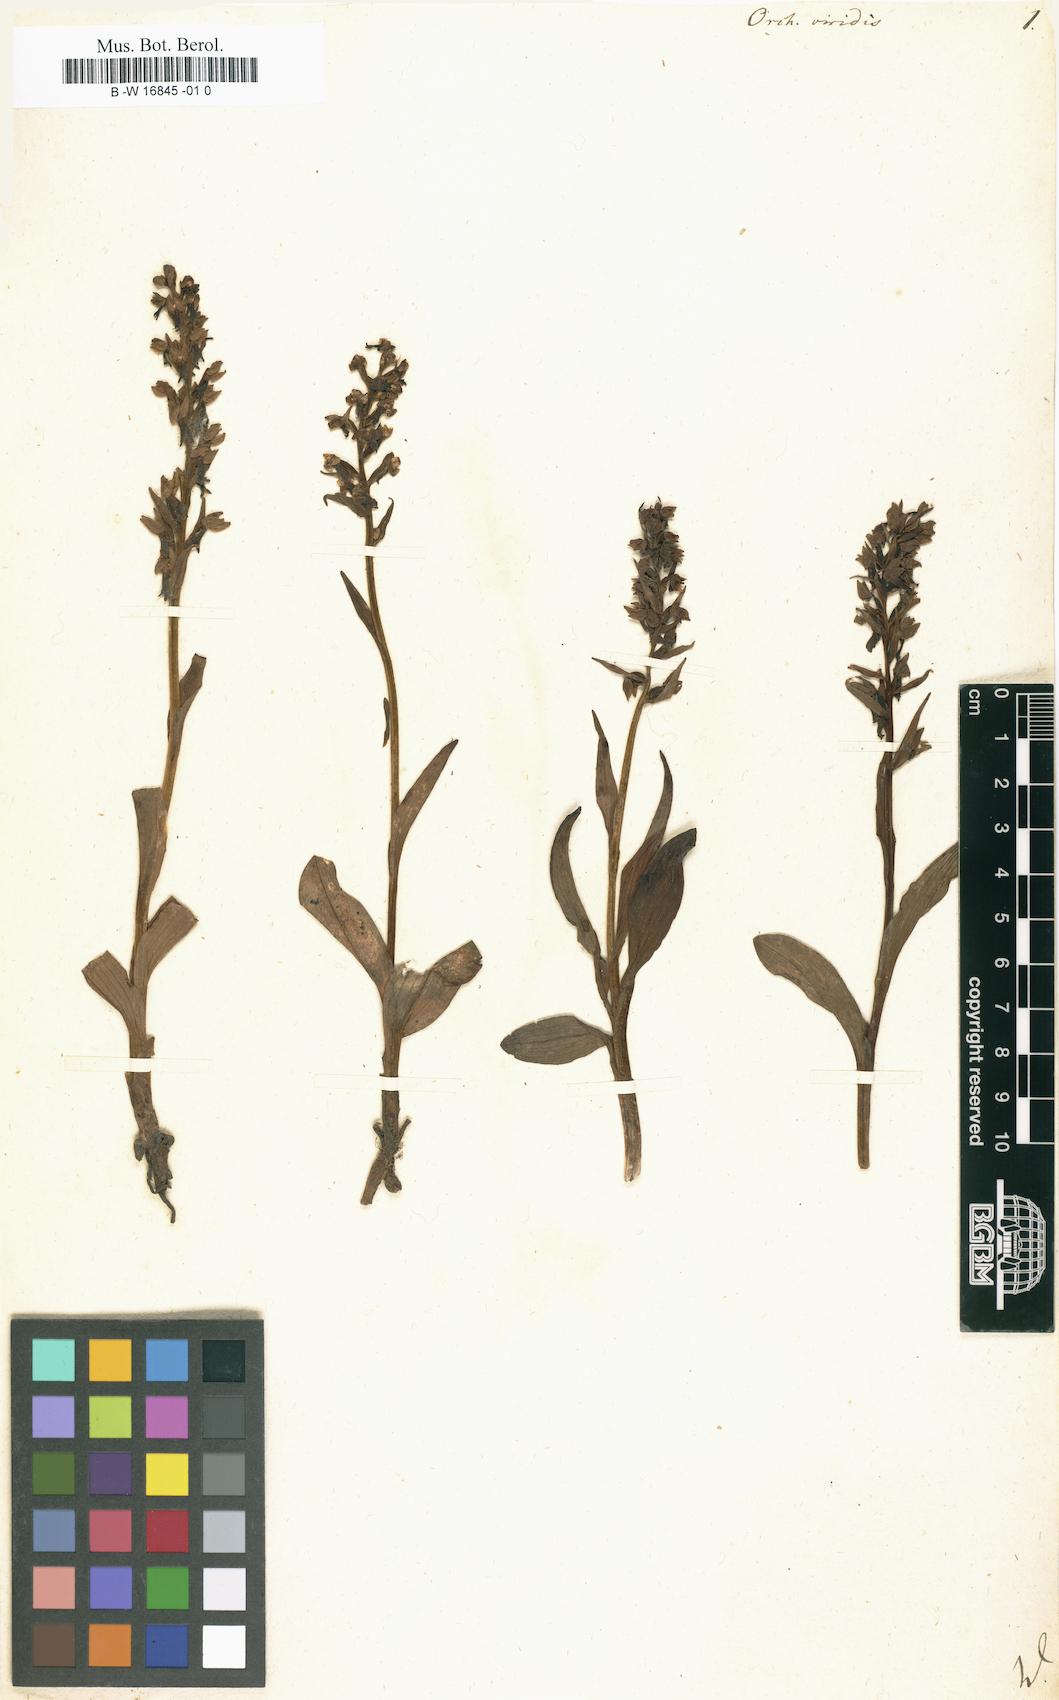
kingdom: Plantae
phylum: Tracheophyta
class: Liliopsida
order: Asparagales
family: Orchidaceae
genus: Dactylorhiza
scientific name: Dactylorhiza viridis
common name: Longbract frog orchid
